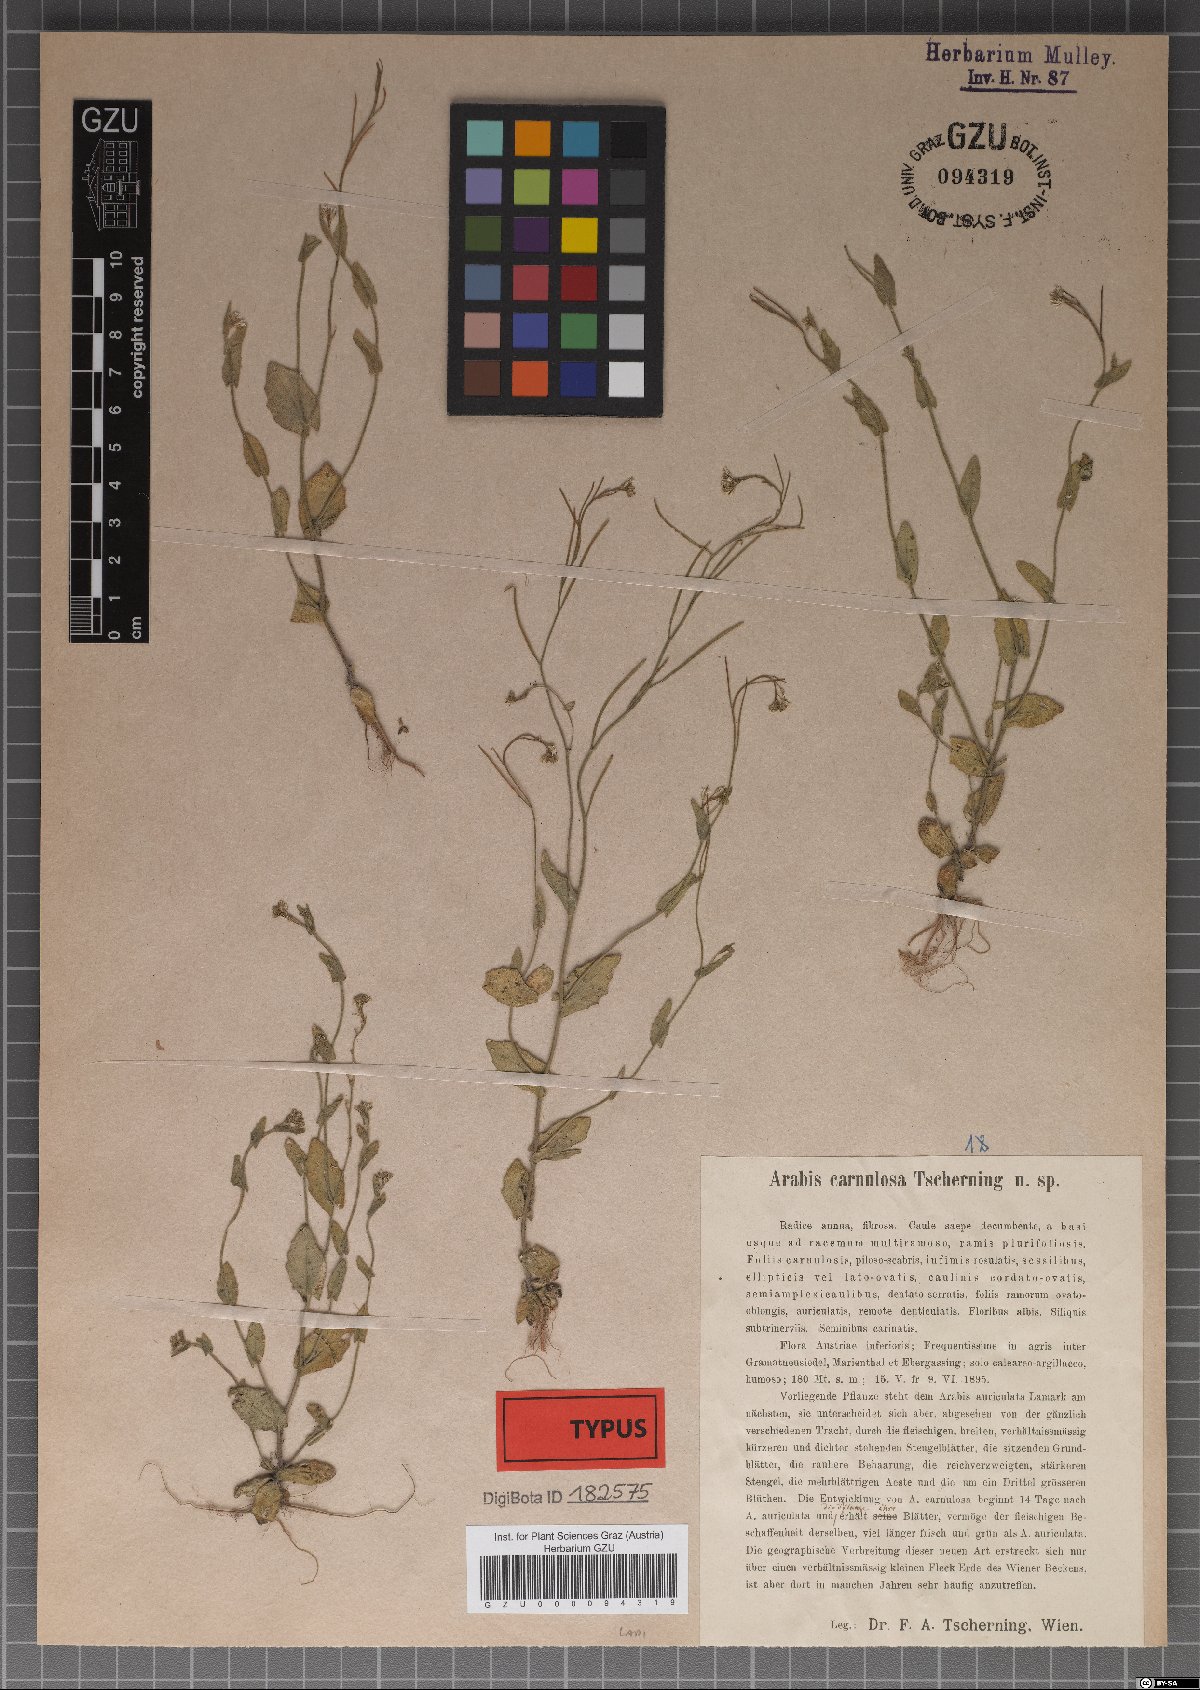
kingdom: Plantae
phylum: Tracheophyta
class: Magnoliopsida
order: Brassicales
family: Brassicaceae
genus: Arabis
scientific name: Arabis auriculata
